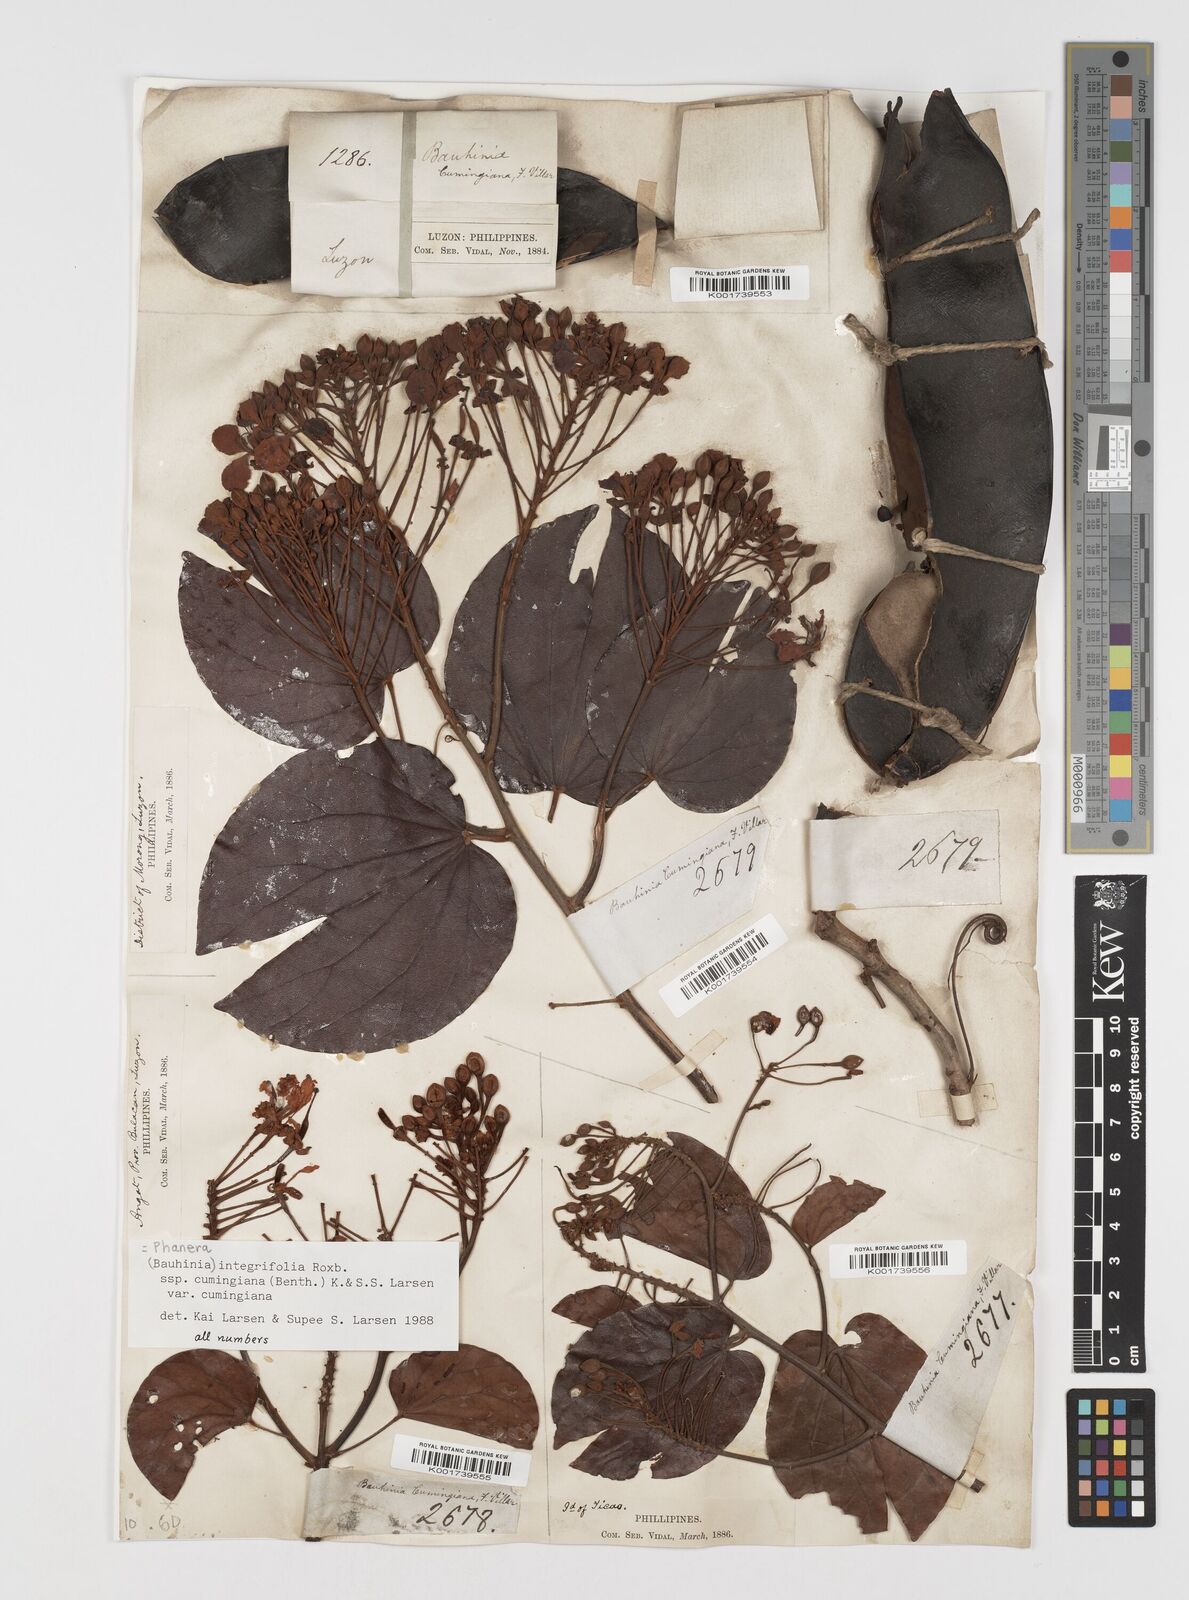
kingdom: Plantae
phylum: Tracheophyta
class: Magnoliopsida
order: Fabales
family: Fabaceae
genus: Phanera
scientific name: Phanera integrifolia
